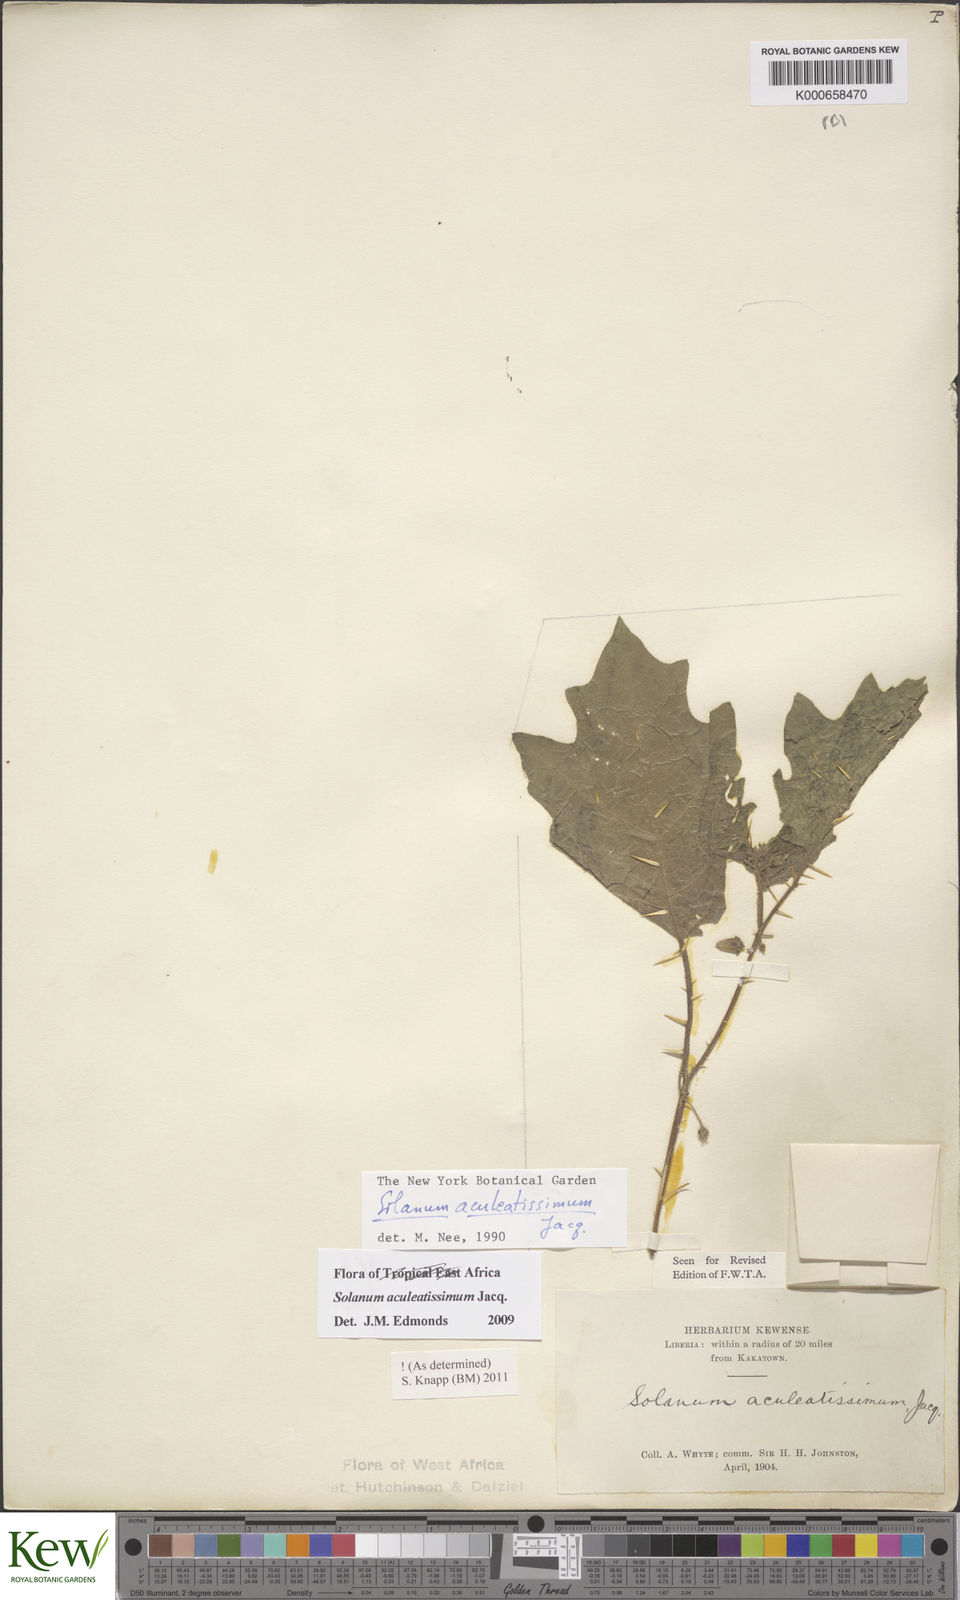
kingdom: Plantae
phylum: Tracheophyta
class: Magnoliopsida
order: Solanales
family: Solanaceae
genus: Solanum
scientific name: Solanum aculeatissimum
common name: Dutch eggplant
